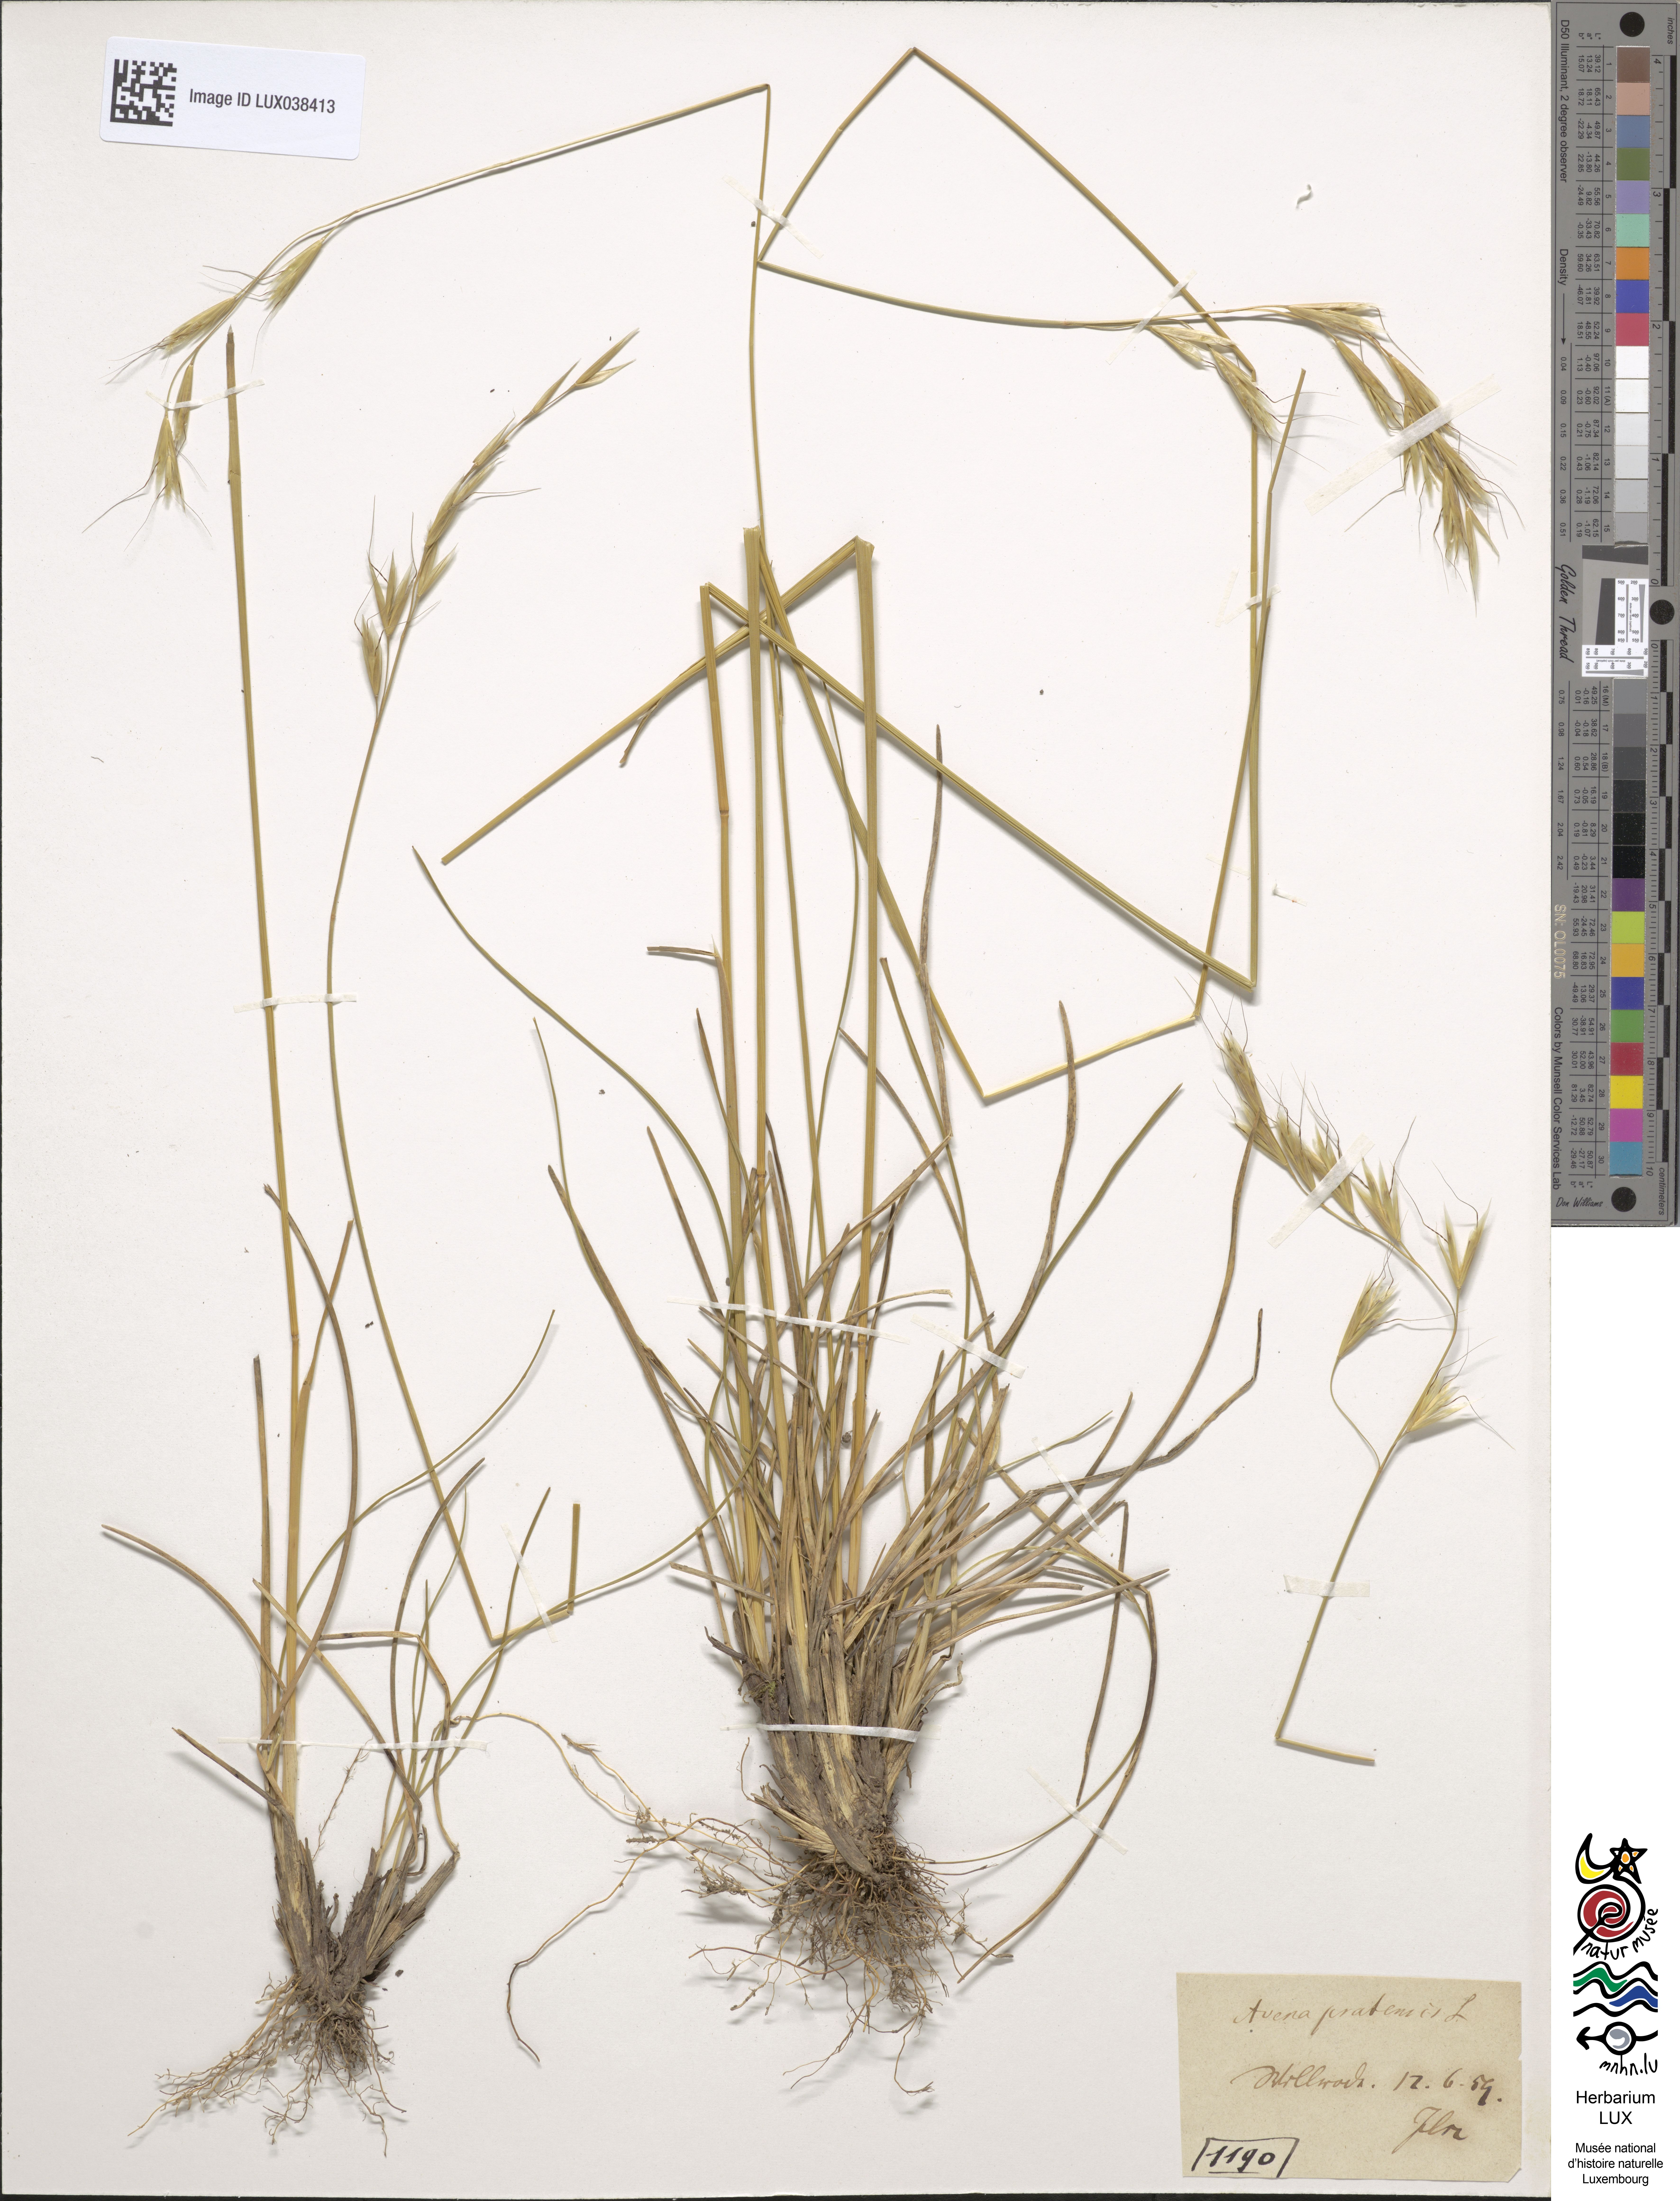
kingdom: Plantae
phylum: Tracheophyta
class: Liliopsida
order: Poales
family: Poaceae
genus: Helictochloa
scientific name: Helictochloa pratensis
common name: Meadow oat grass
